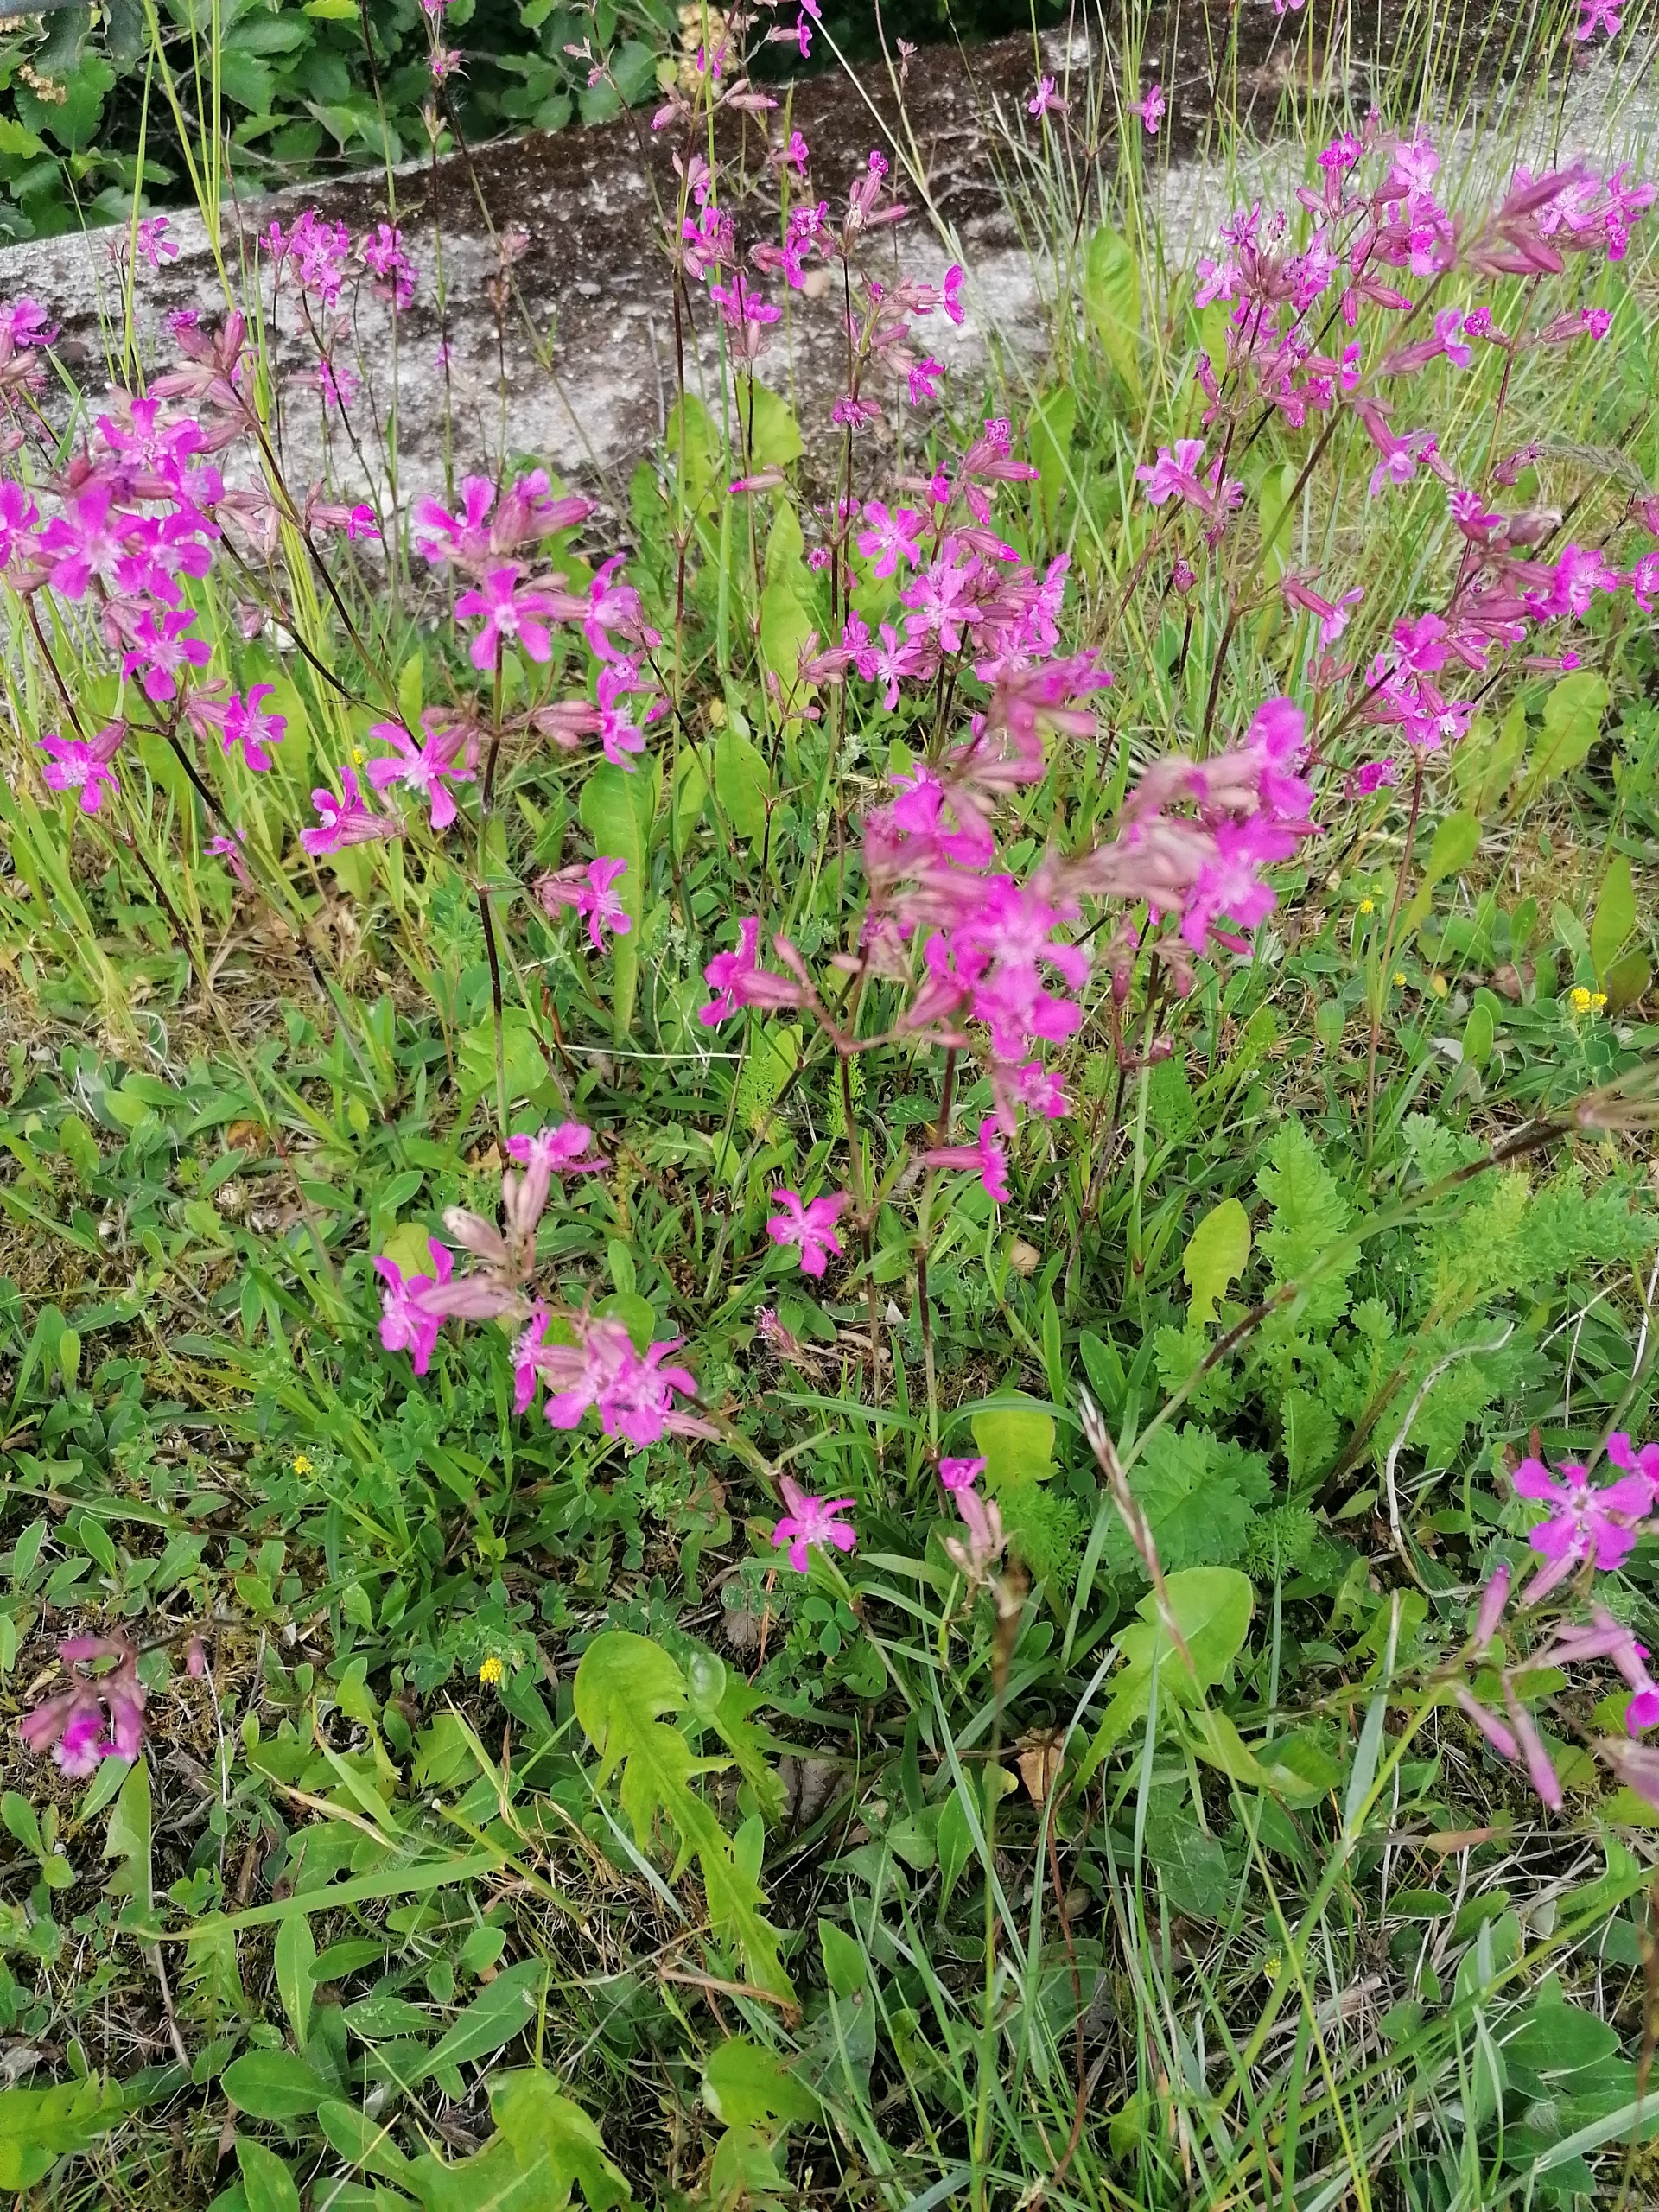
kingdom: Plantae
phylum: Tracheophyta
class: Magnoliopsida
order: Caryophyllales
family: Caryophyllaceae
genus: Viscaria
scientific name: Viscaria vulgaris
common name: Tjærenellike
